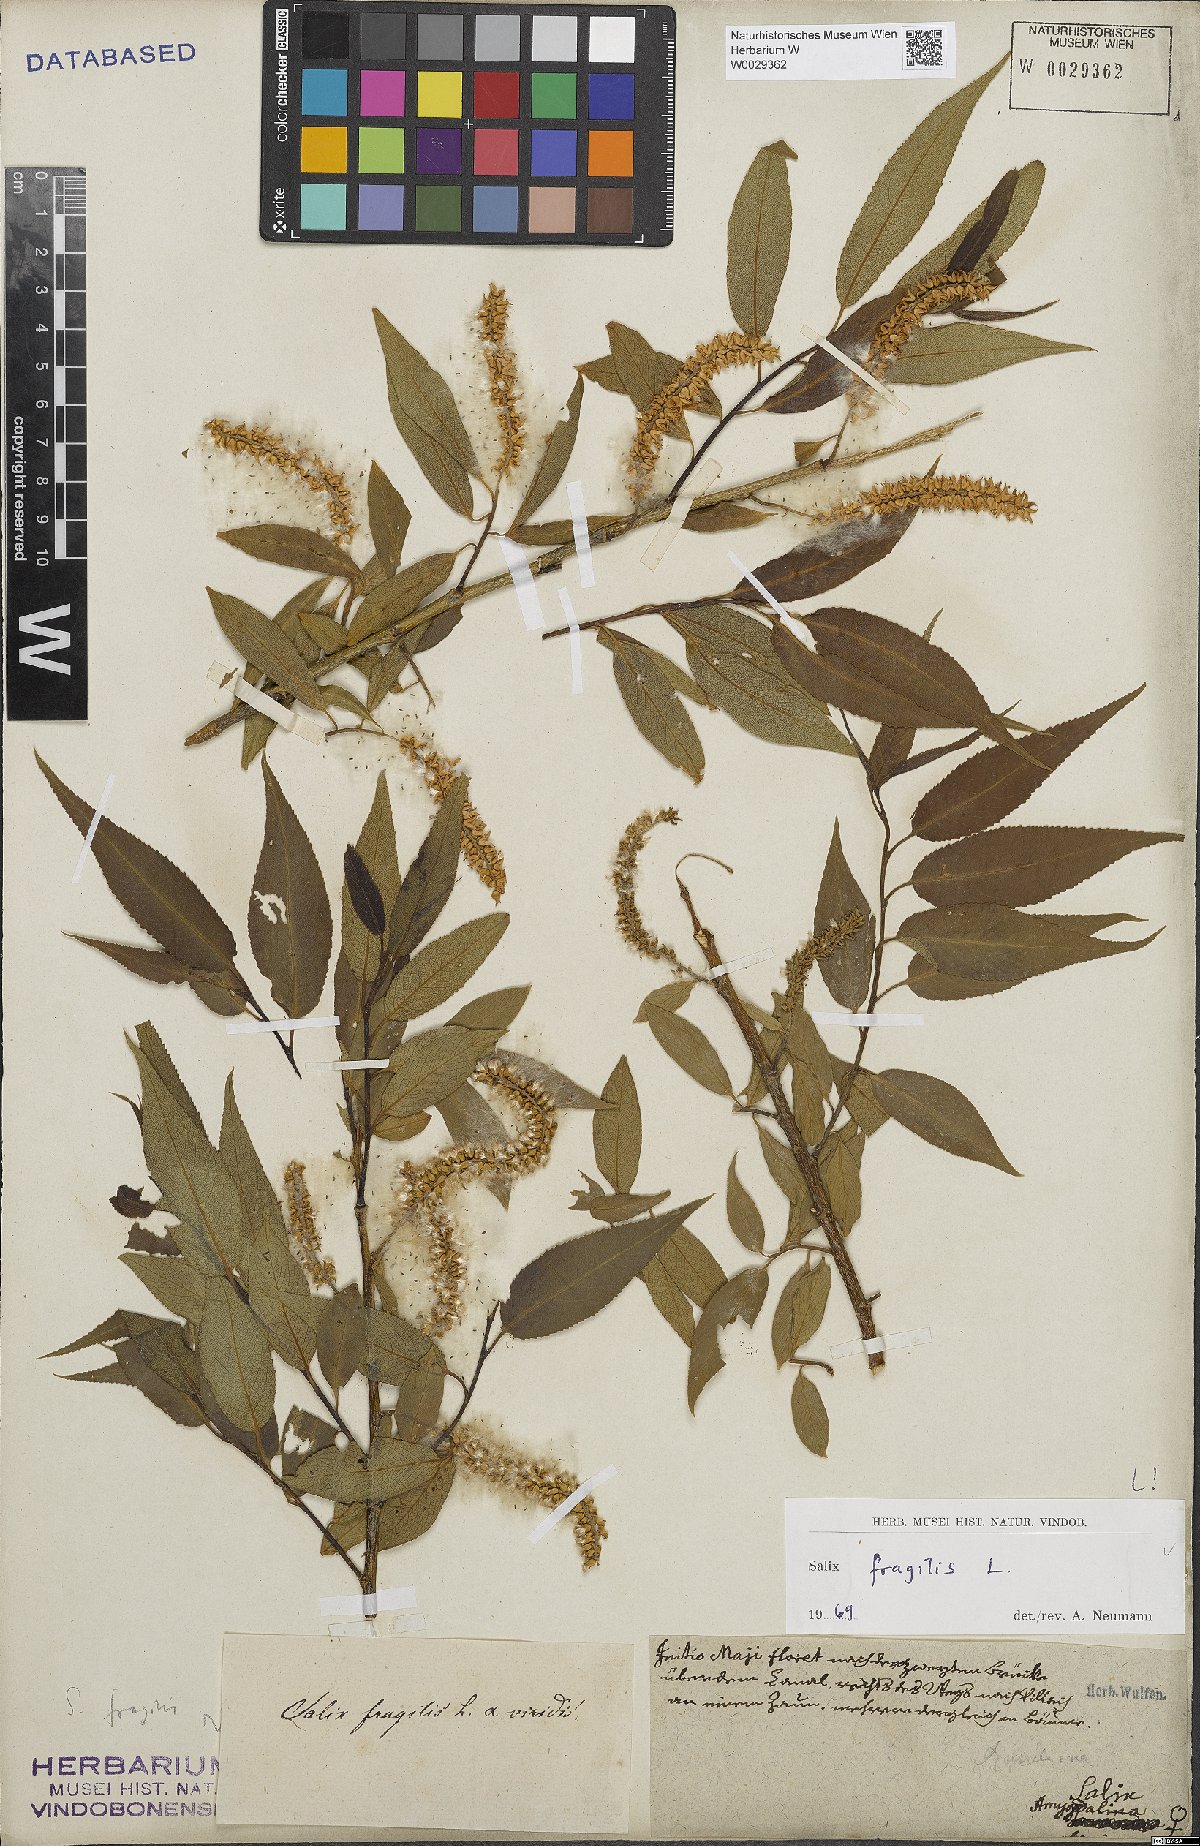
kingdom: Plantae
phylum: Tracheophyta
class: Magnoliopsida
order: Malpighiales
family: Salicaceae
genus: Salix
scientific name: Salix fragilis
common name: Crack willow
